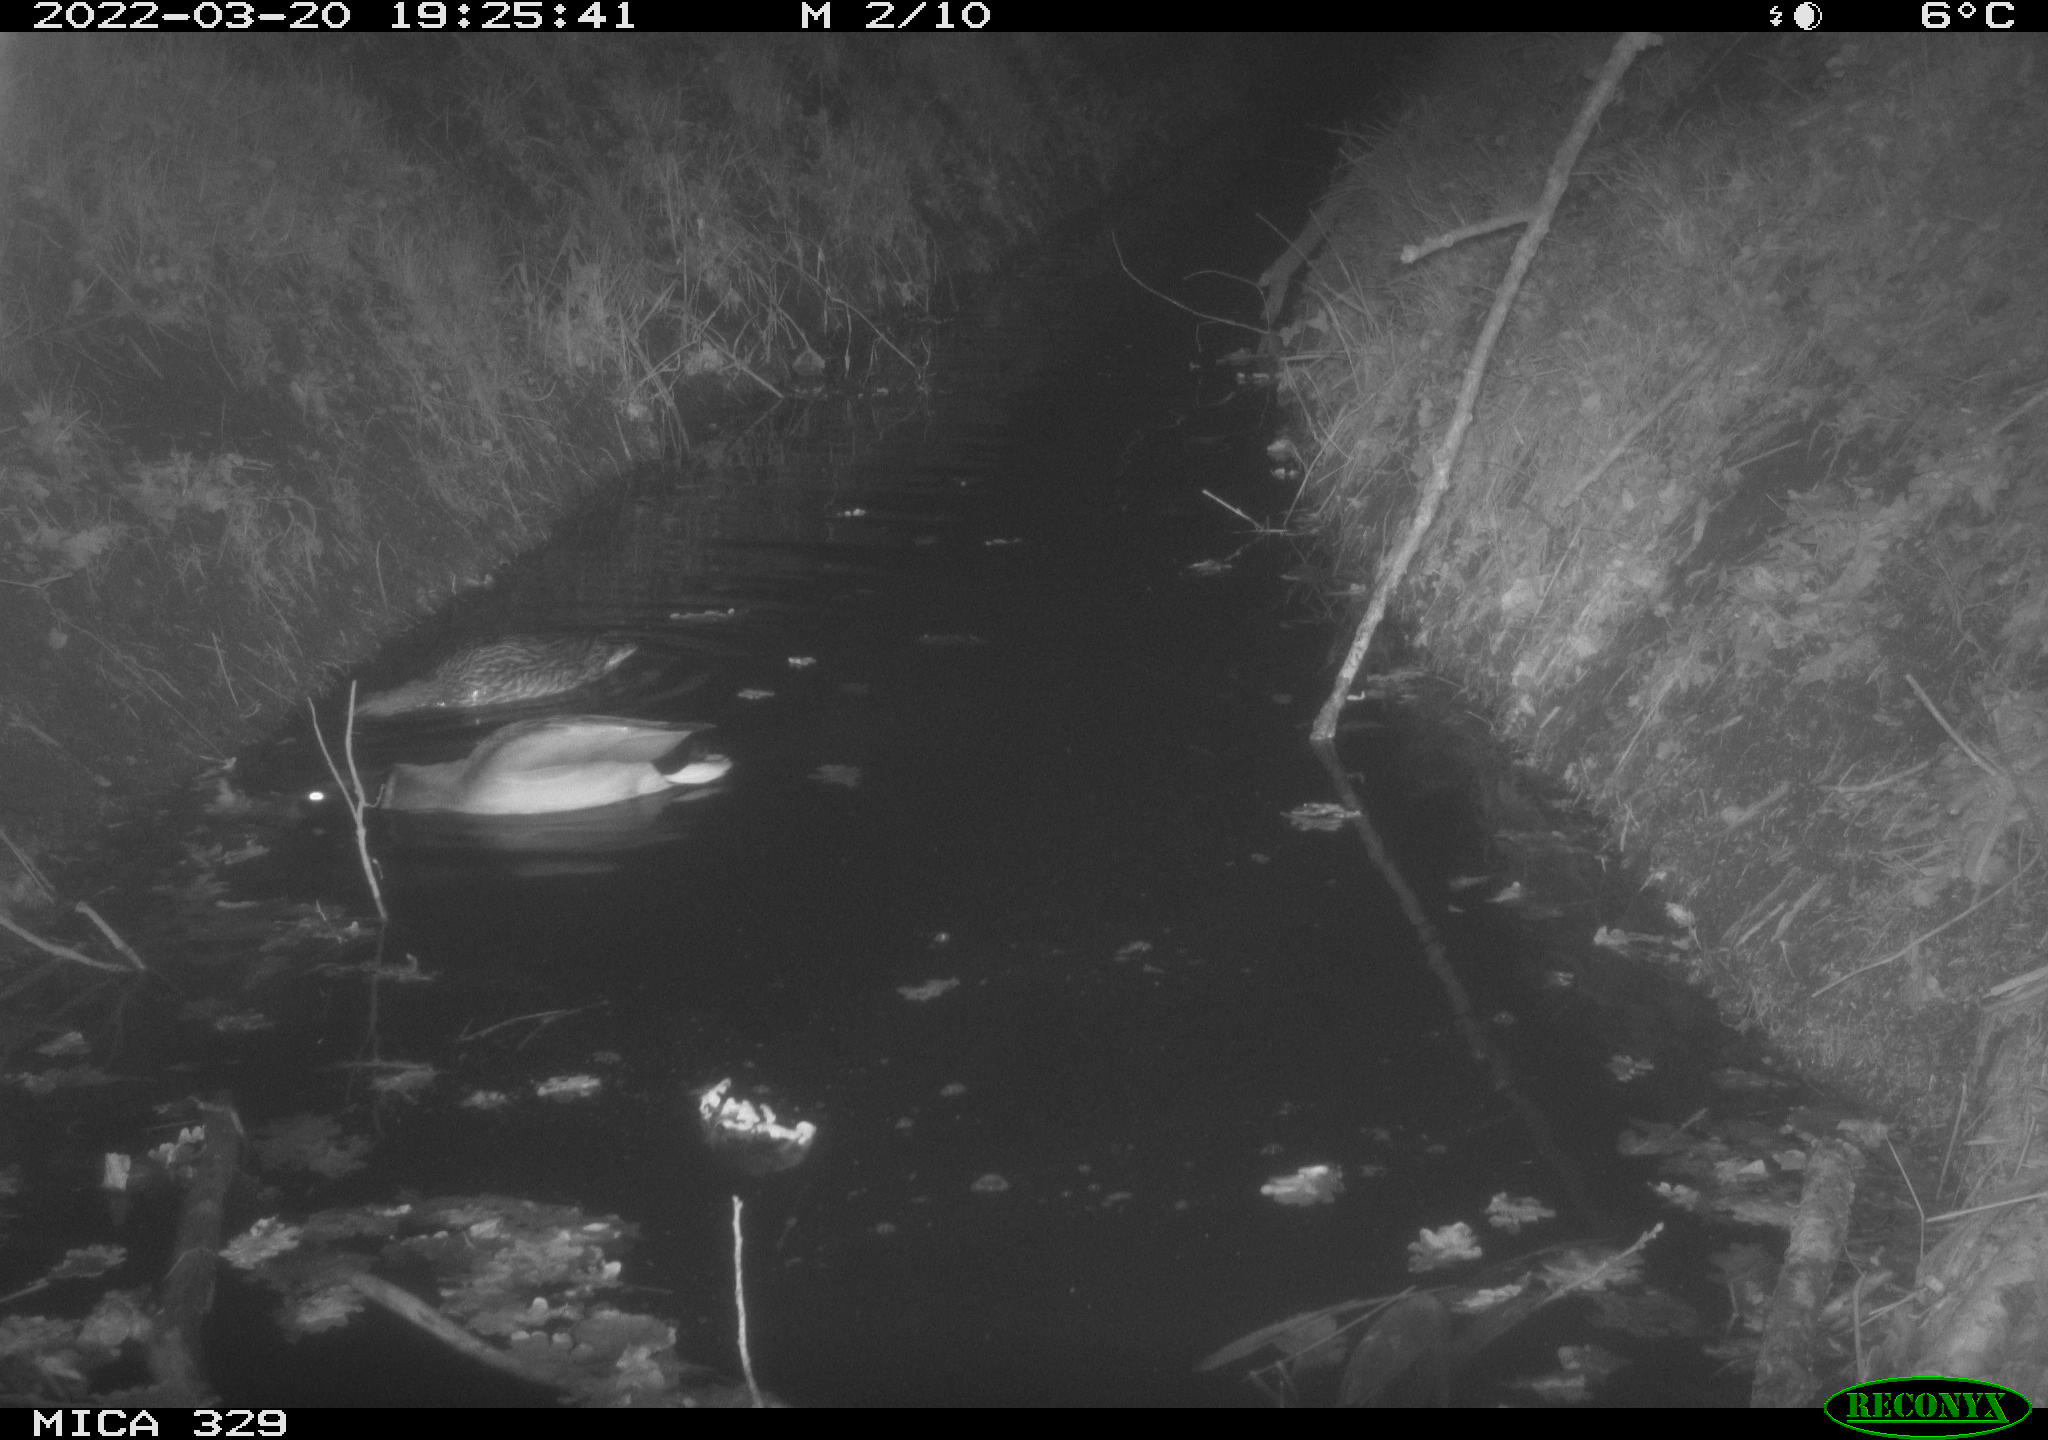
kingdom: Animalia
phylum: Chordata
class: Aves
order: Anseriformes
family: Anatidae
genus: Anas
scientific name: Anas platyrhynchos
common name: Mallard
